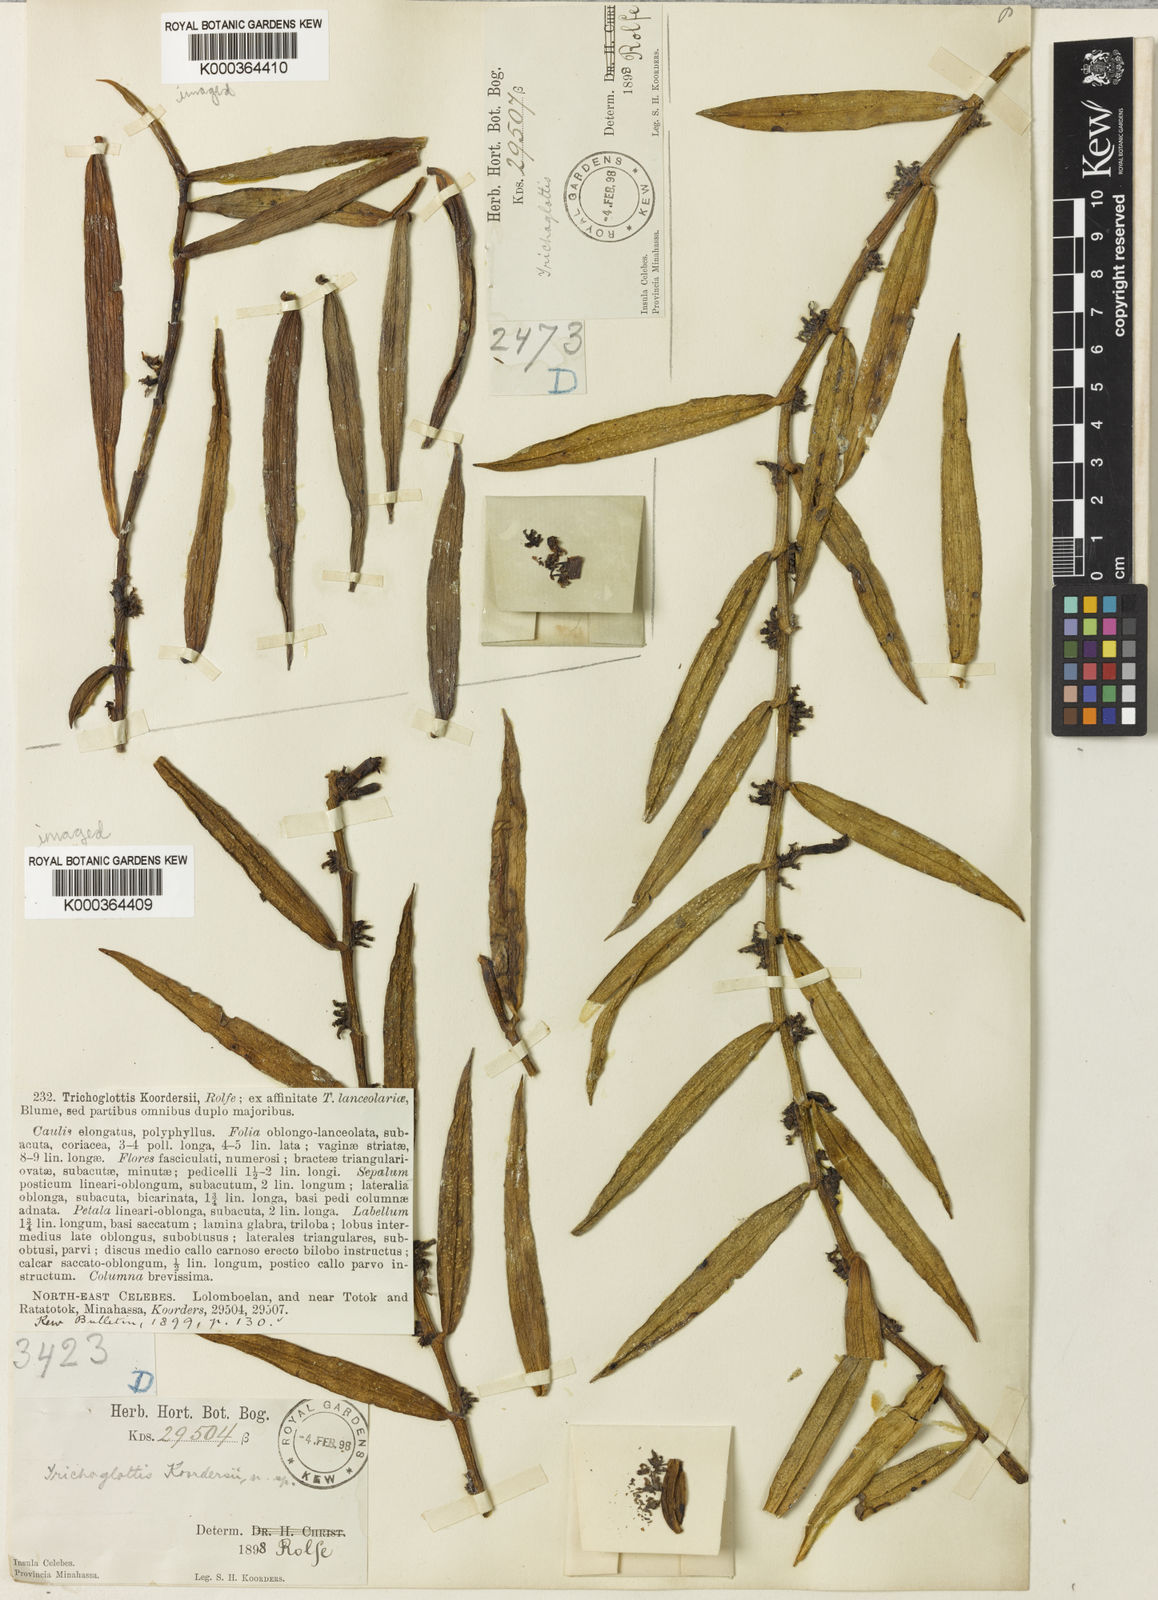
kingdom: Plantae
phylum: Tracheophyta
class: Liliopsida
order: Asparagales
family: Orchidaceae
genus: Trichoglottis
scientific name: Trichoglottis koordersii
